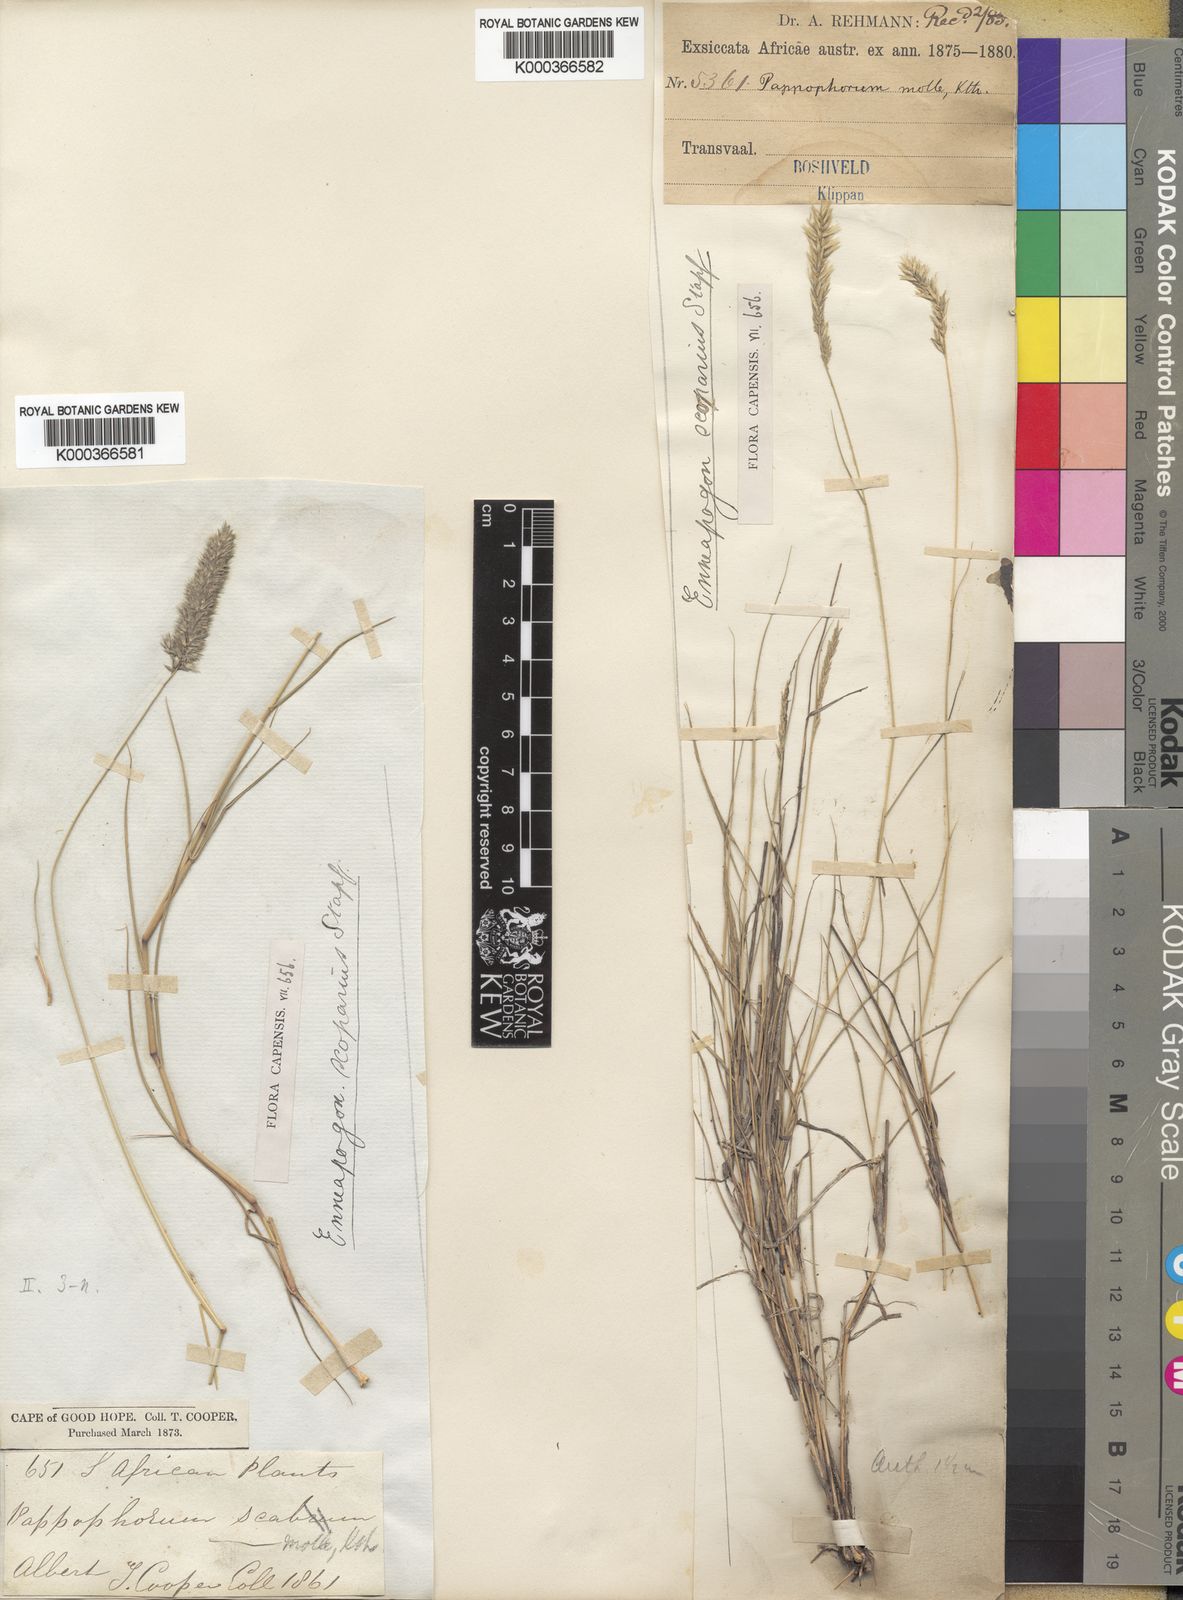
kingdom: Plantae
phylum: Tracheophyta
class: Liliopsida
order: Poales
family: Poaceae
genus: Enneapogon
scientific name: Enneapogon scoparius
